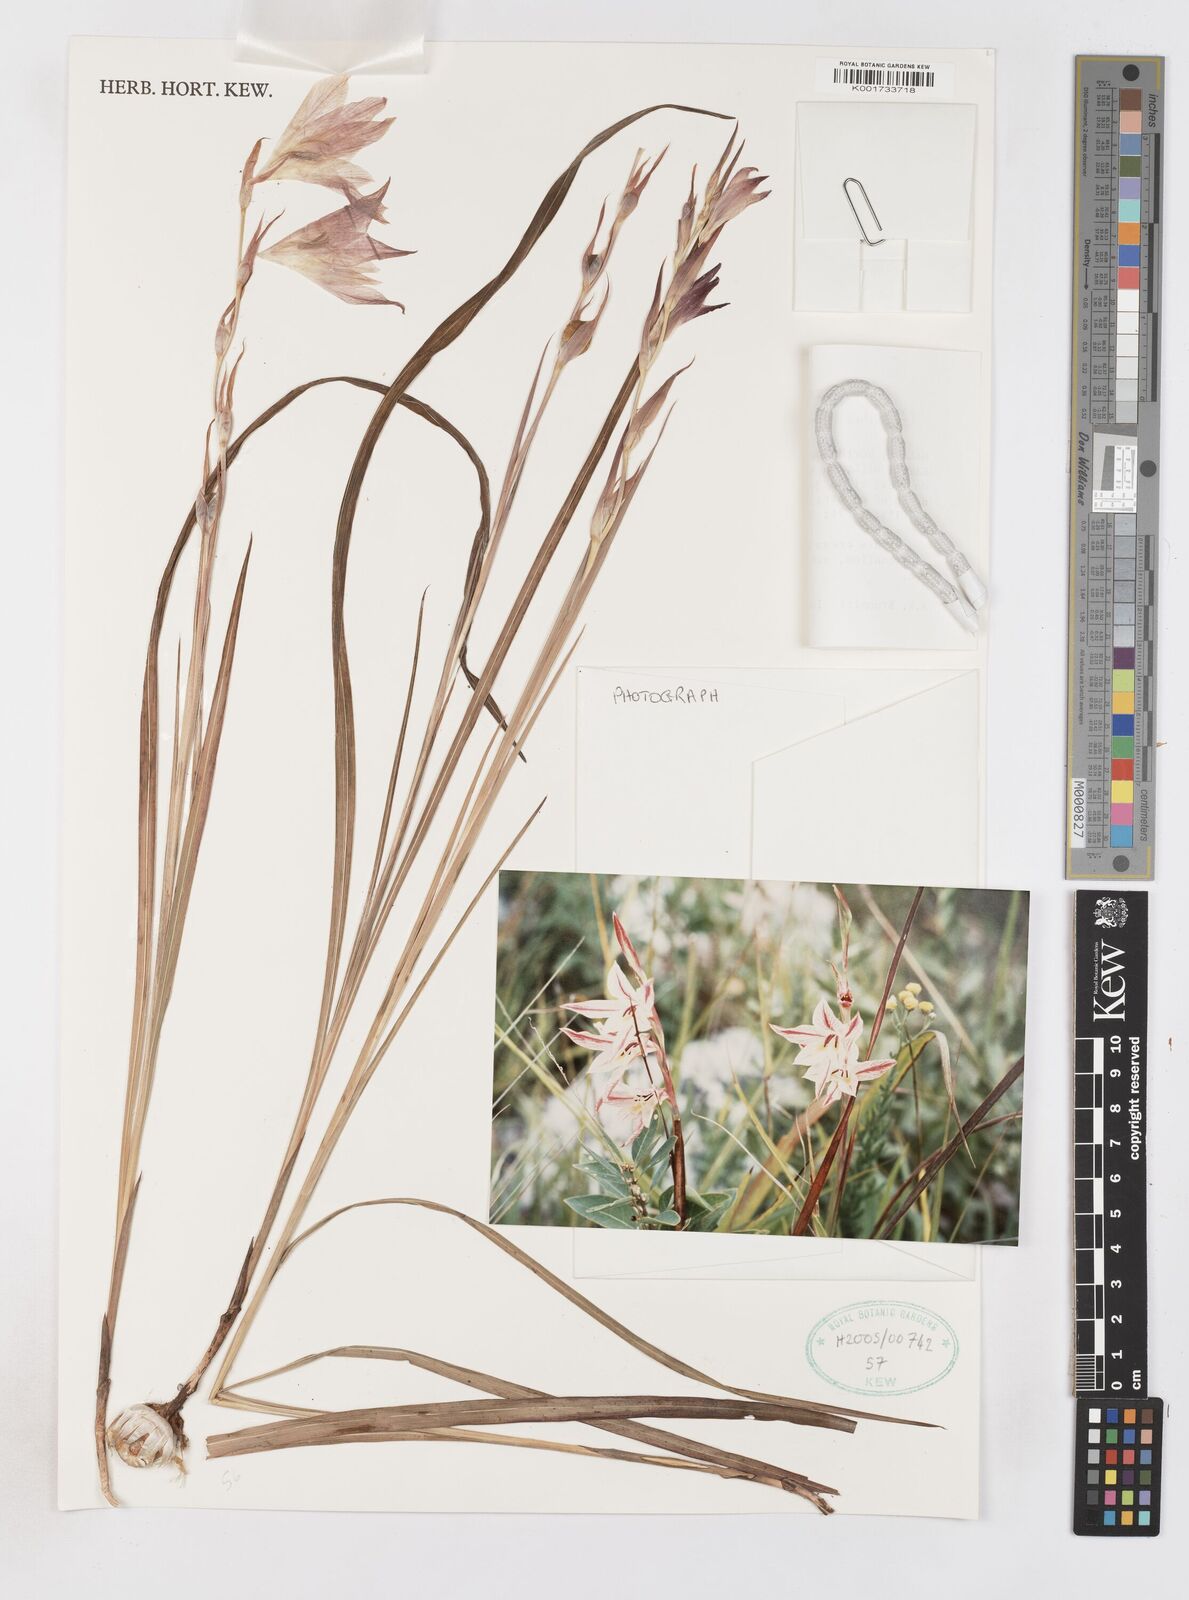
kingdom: Plantae
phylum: Tracheophyta
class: Liliopsida
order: Asparagales
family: Iridaceae
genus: Gladiolus
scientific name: Gladiolus erectiflorus
